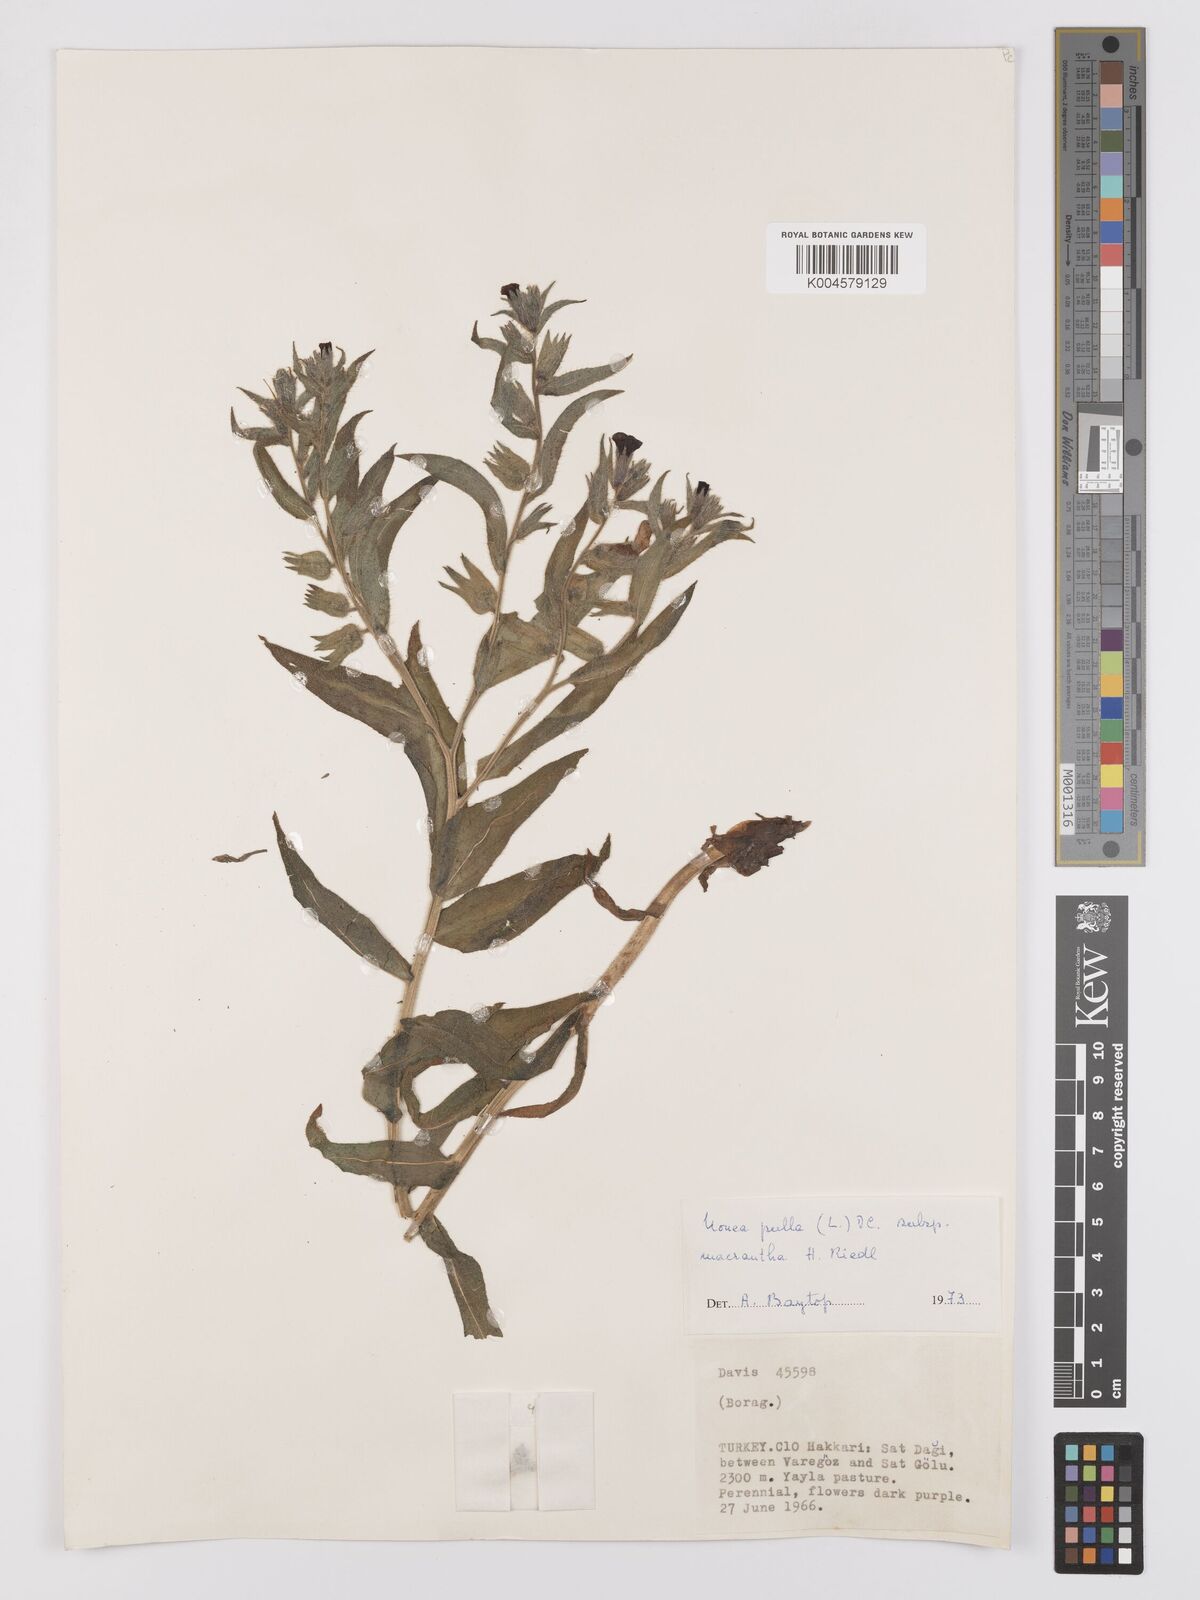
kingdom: Plantae
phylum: Tracheophyta
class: Magnoliopsida
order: Boraginales
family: Boraginaceae
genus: Nonea
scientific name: Nonea pulla
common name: Brown nonea
